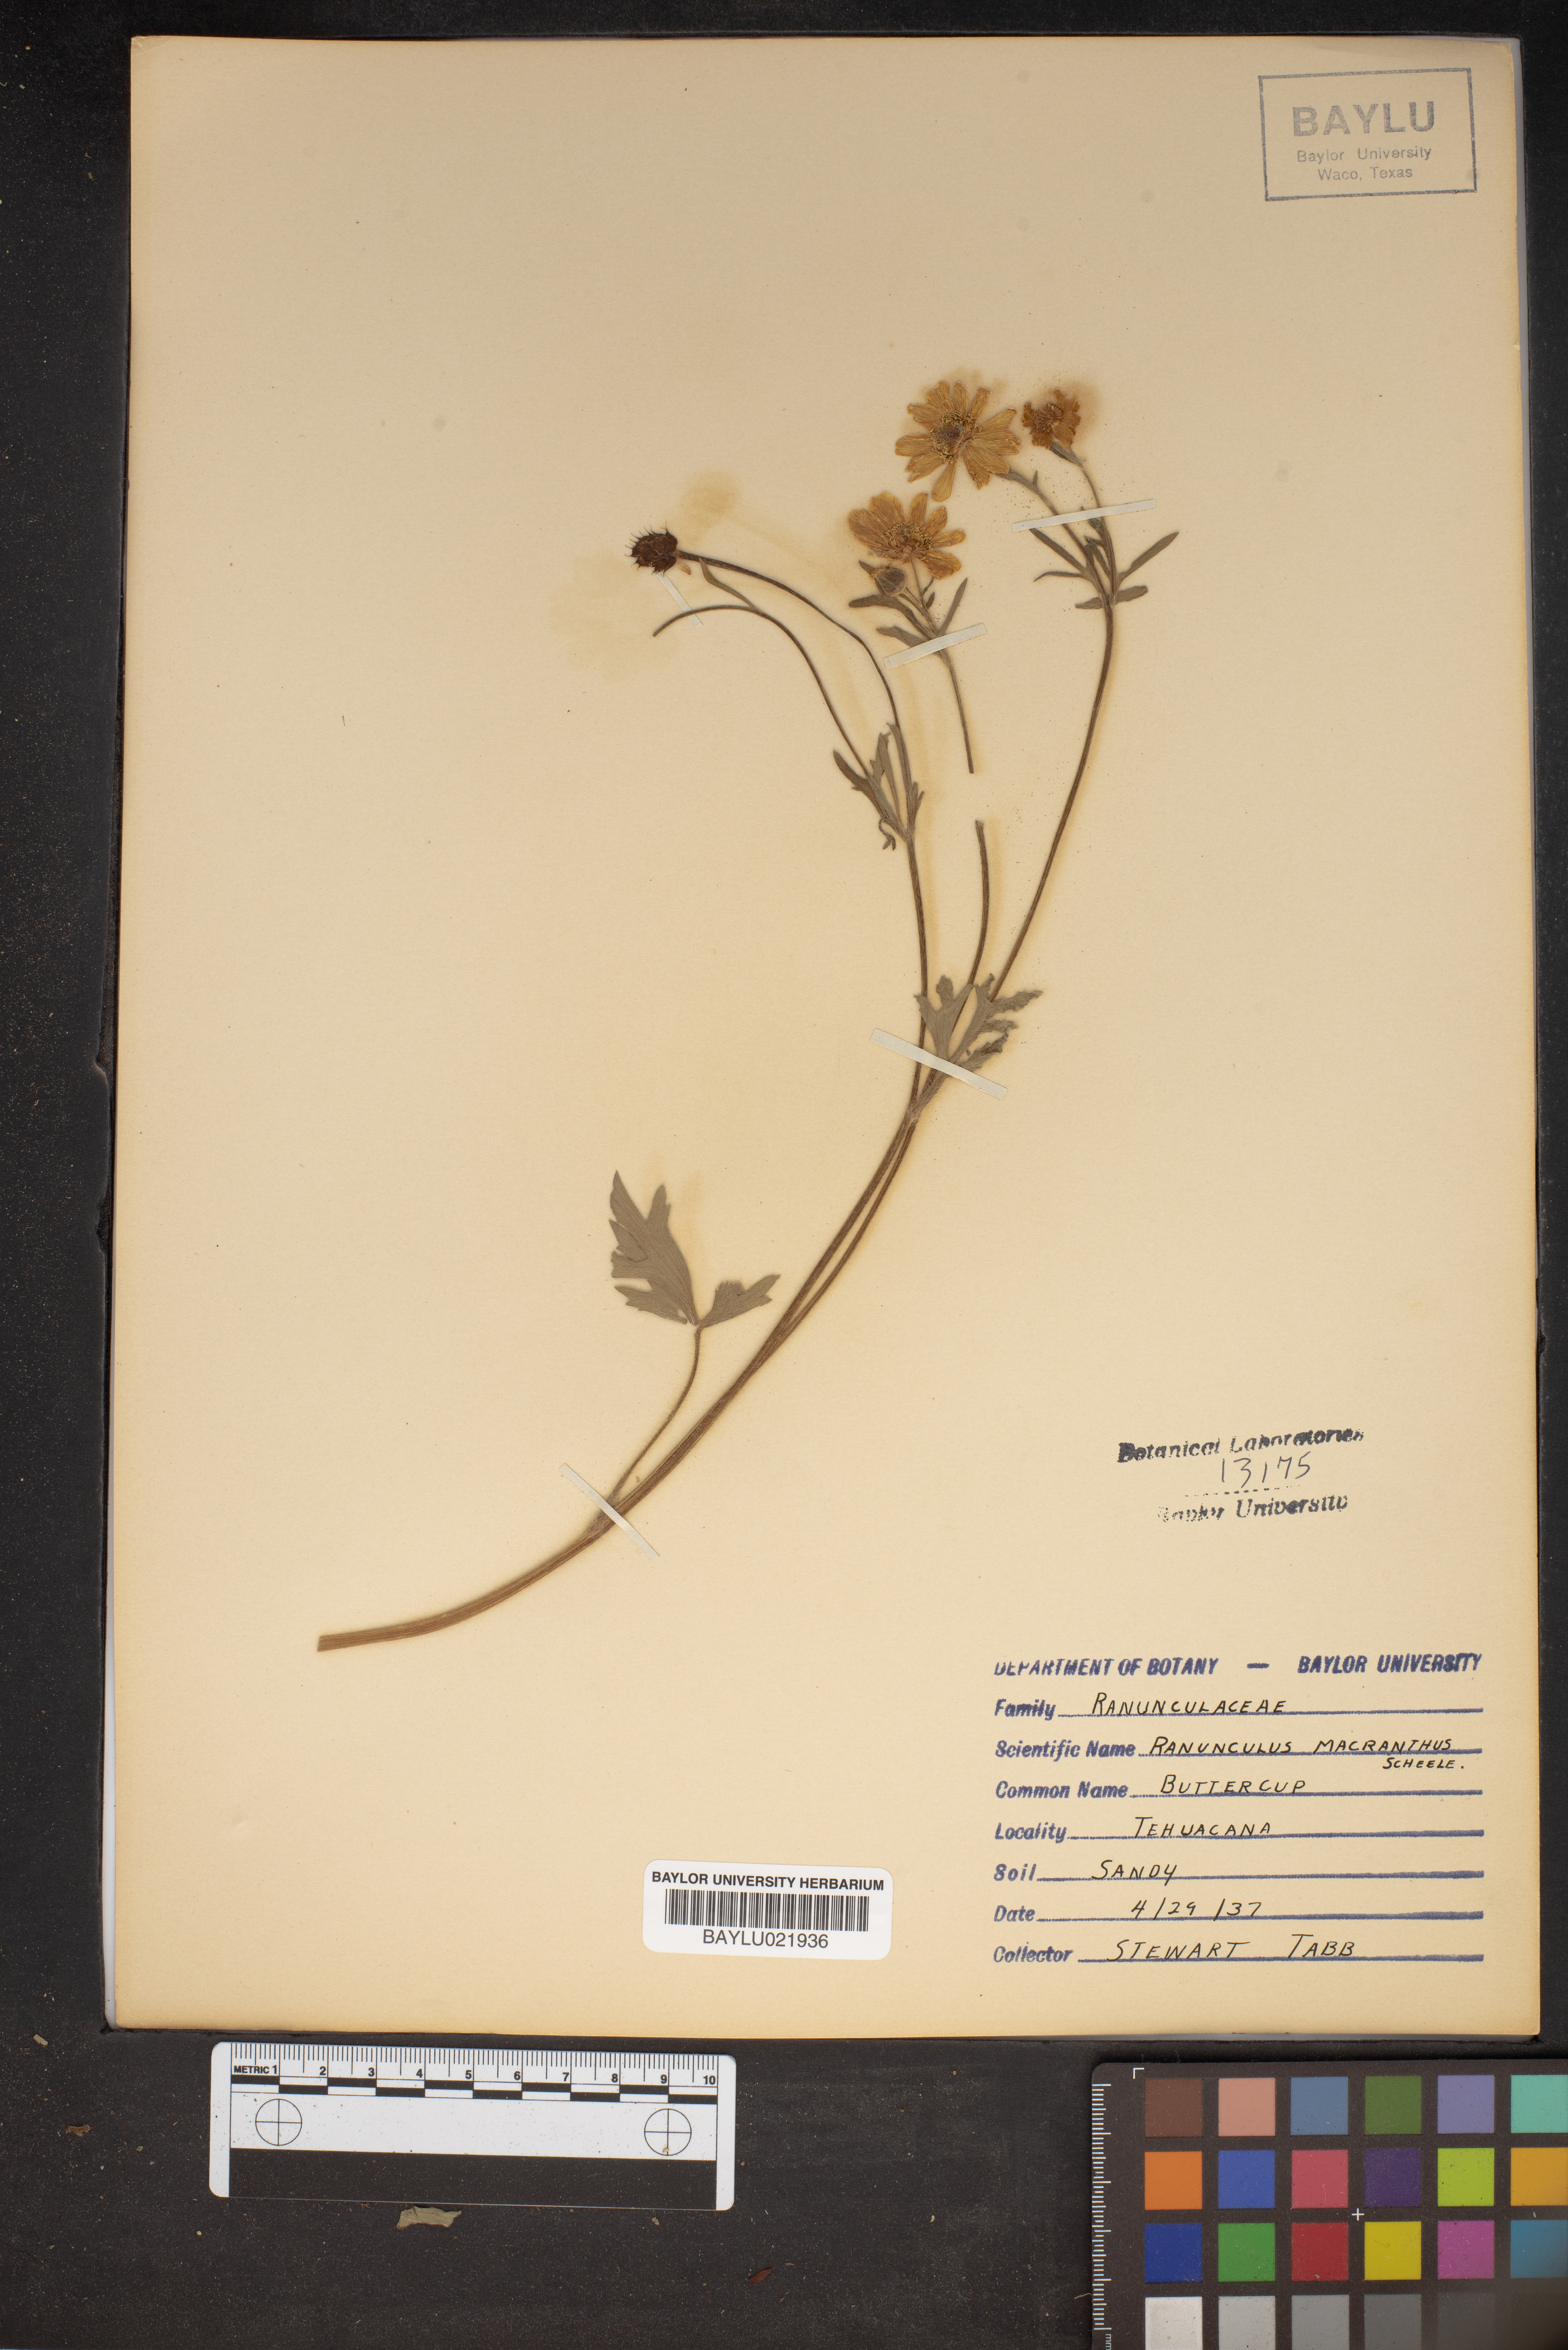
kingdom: Plantae
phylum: Tracheophyta
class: Magnoliopsida
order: Ranunculales
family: Ranunculaceae
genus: Ranunculus
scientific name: Ranunculus macranthus
